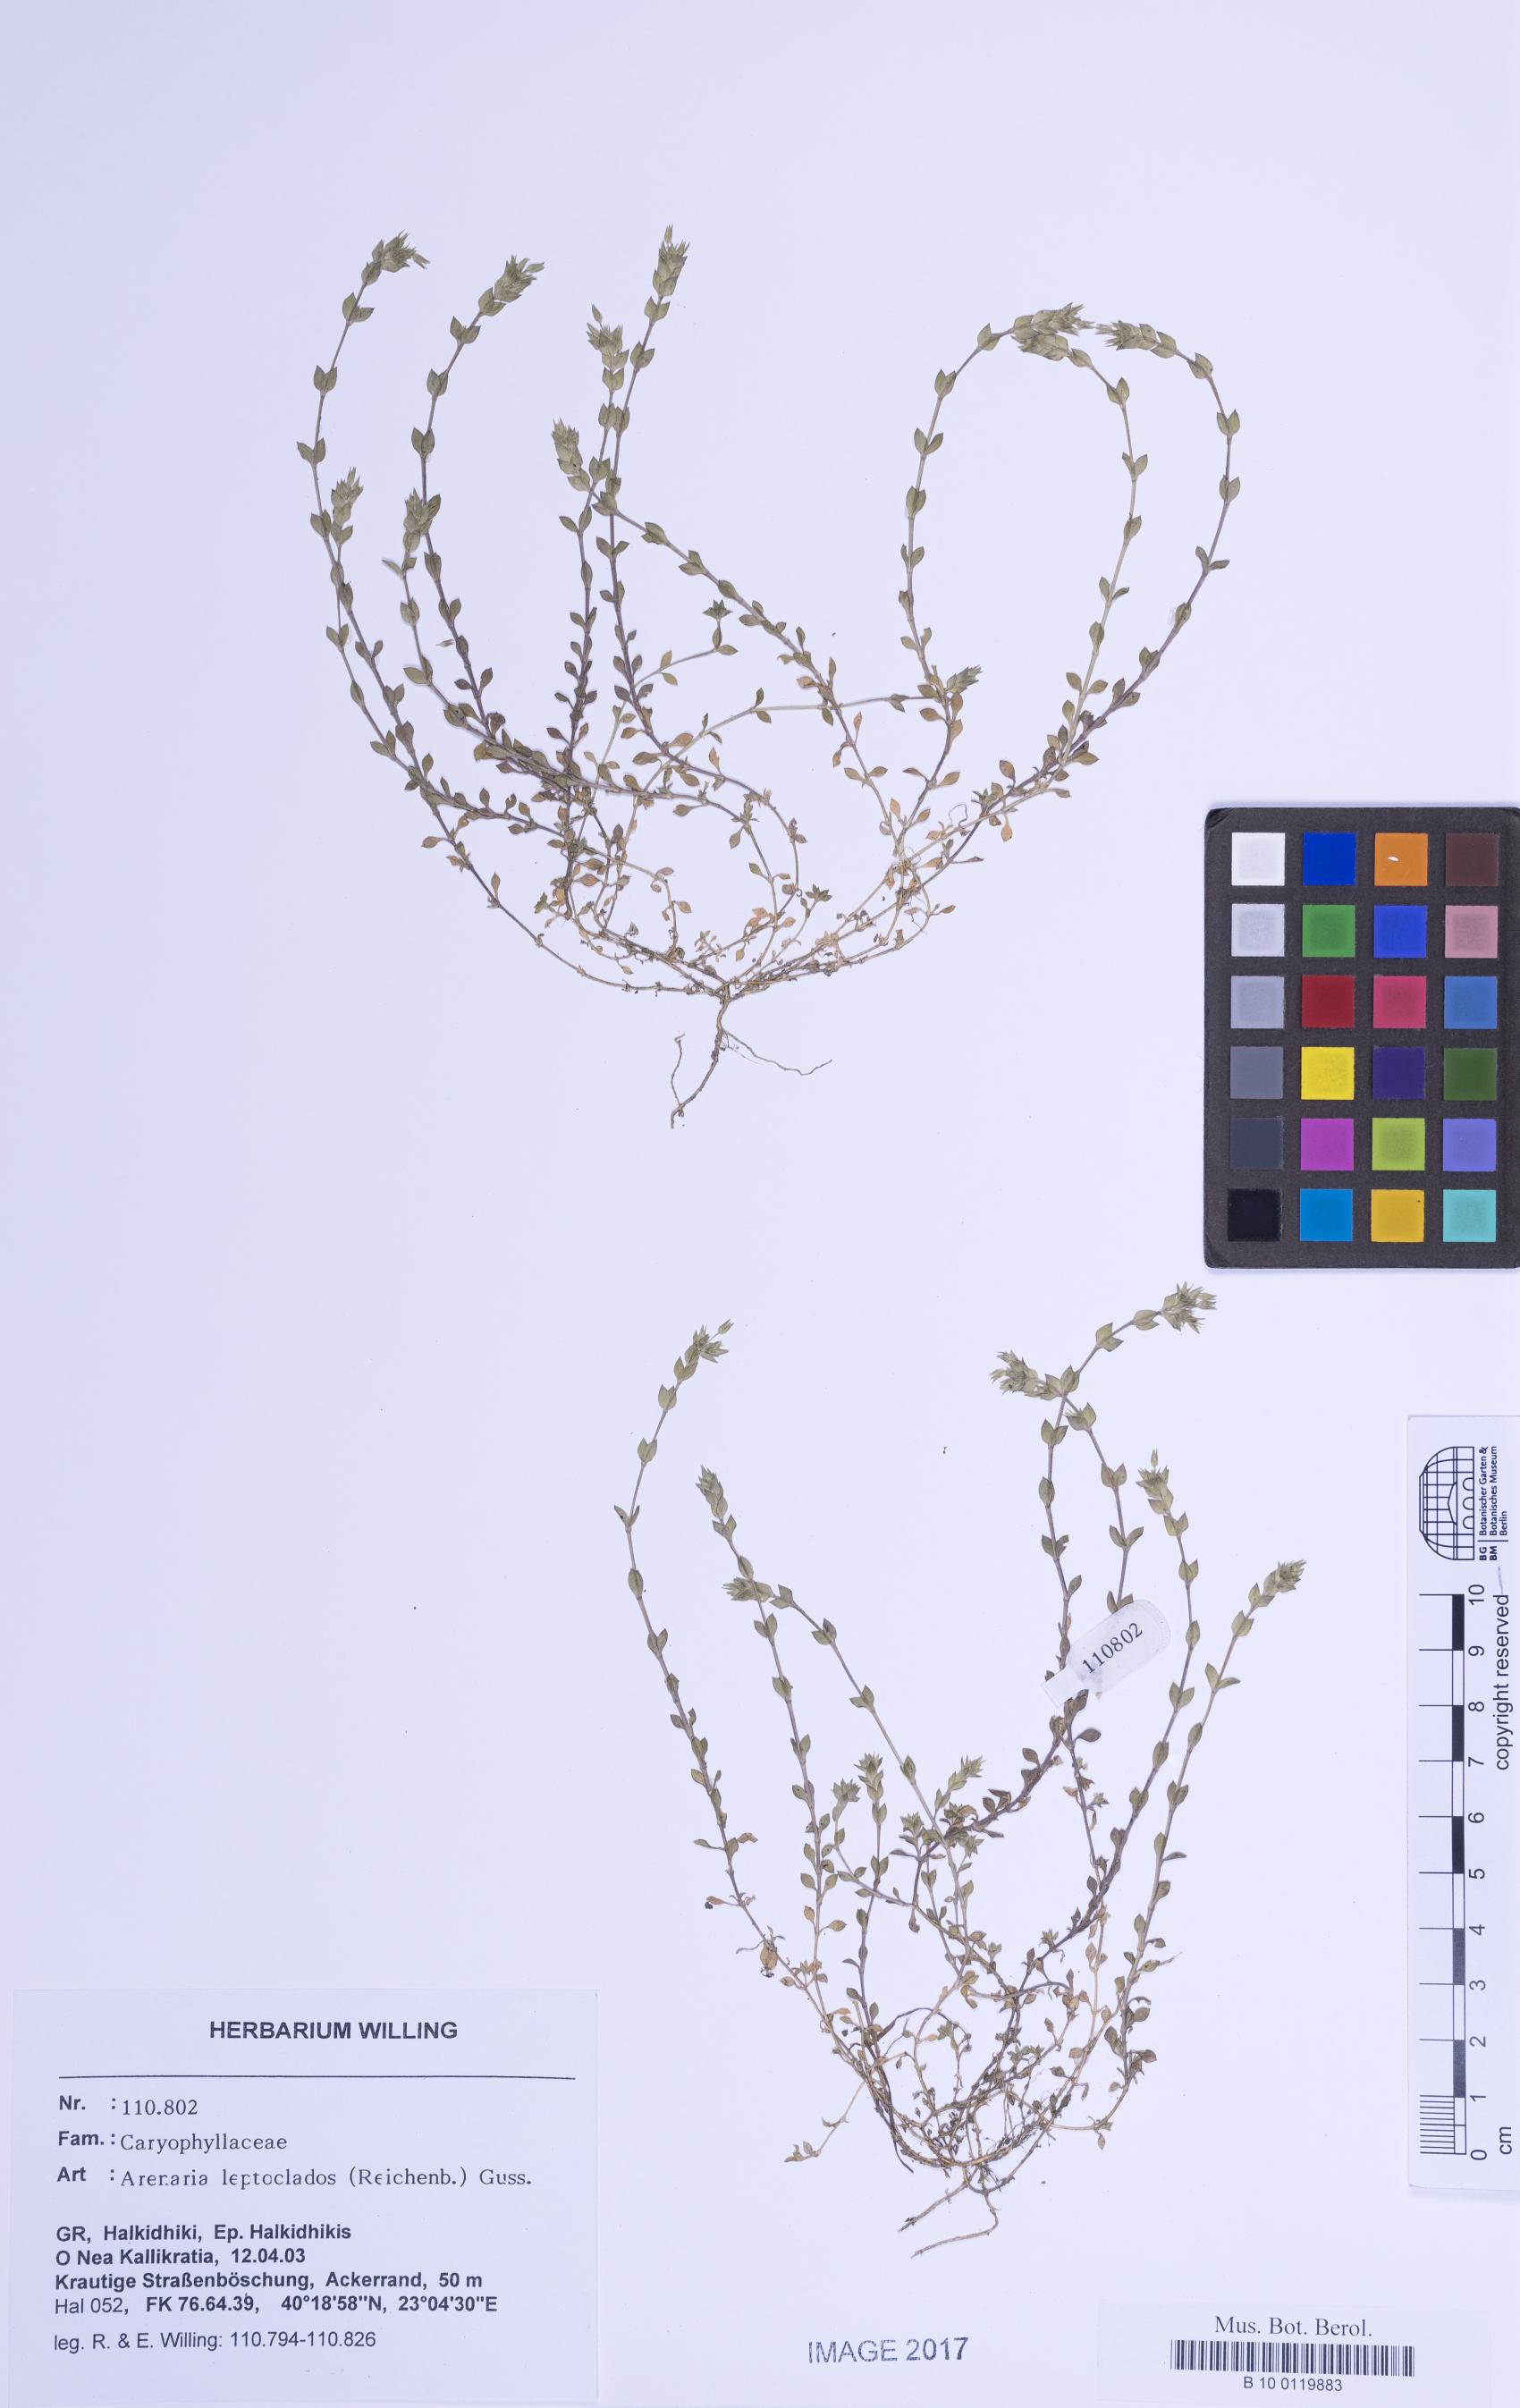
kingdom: Plantae
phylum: Tracheophyta
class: Magnoliopsida
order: Caryophyllales
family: Caryophyllaceae
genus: Arenaria
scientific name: Arenaria leptoclados
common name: Thyme-leaved sandwort
